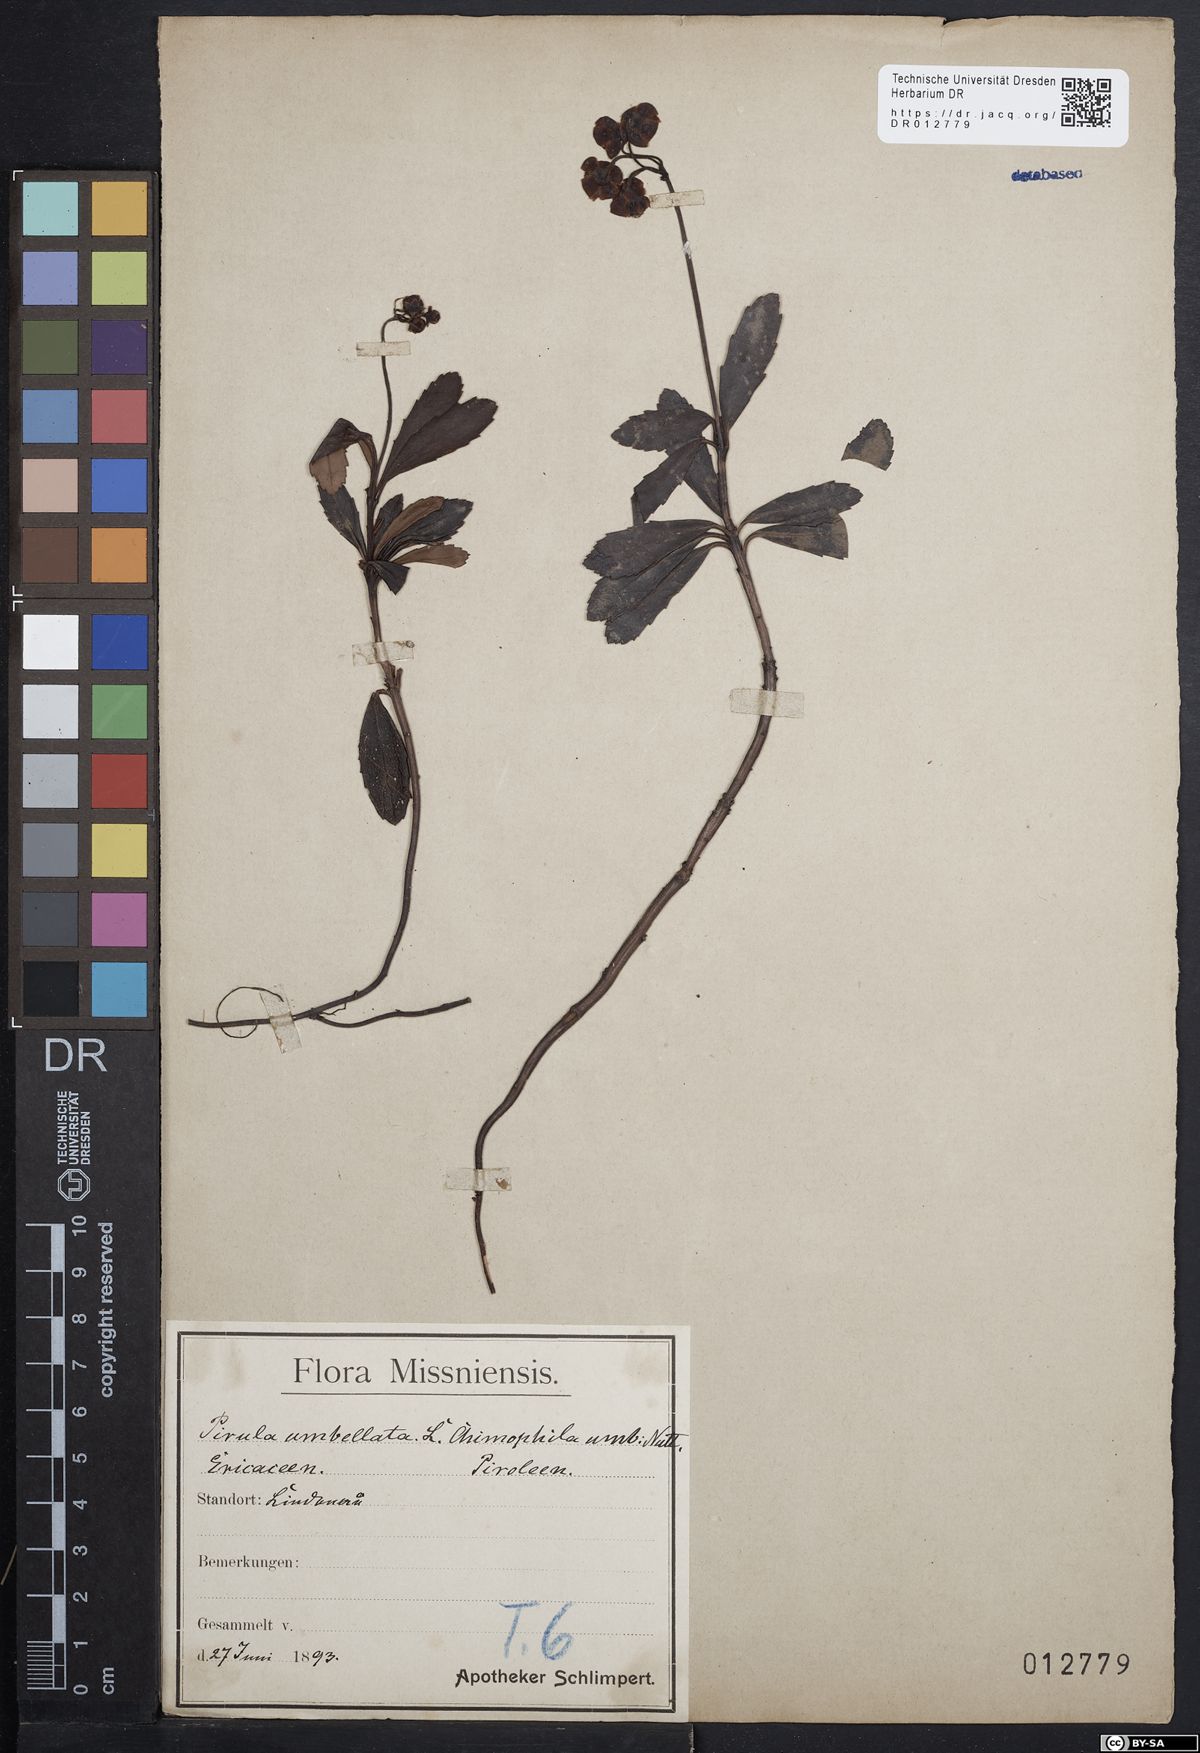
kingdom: Plantae
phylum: Tracheophyta
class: Magnoliopsida
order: Ericales
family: Ericaceae
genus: Chimaphila
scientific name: Chimaphila umbellata
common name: Pipsissewa
